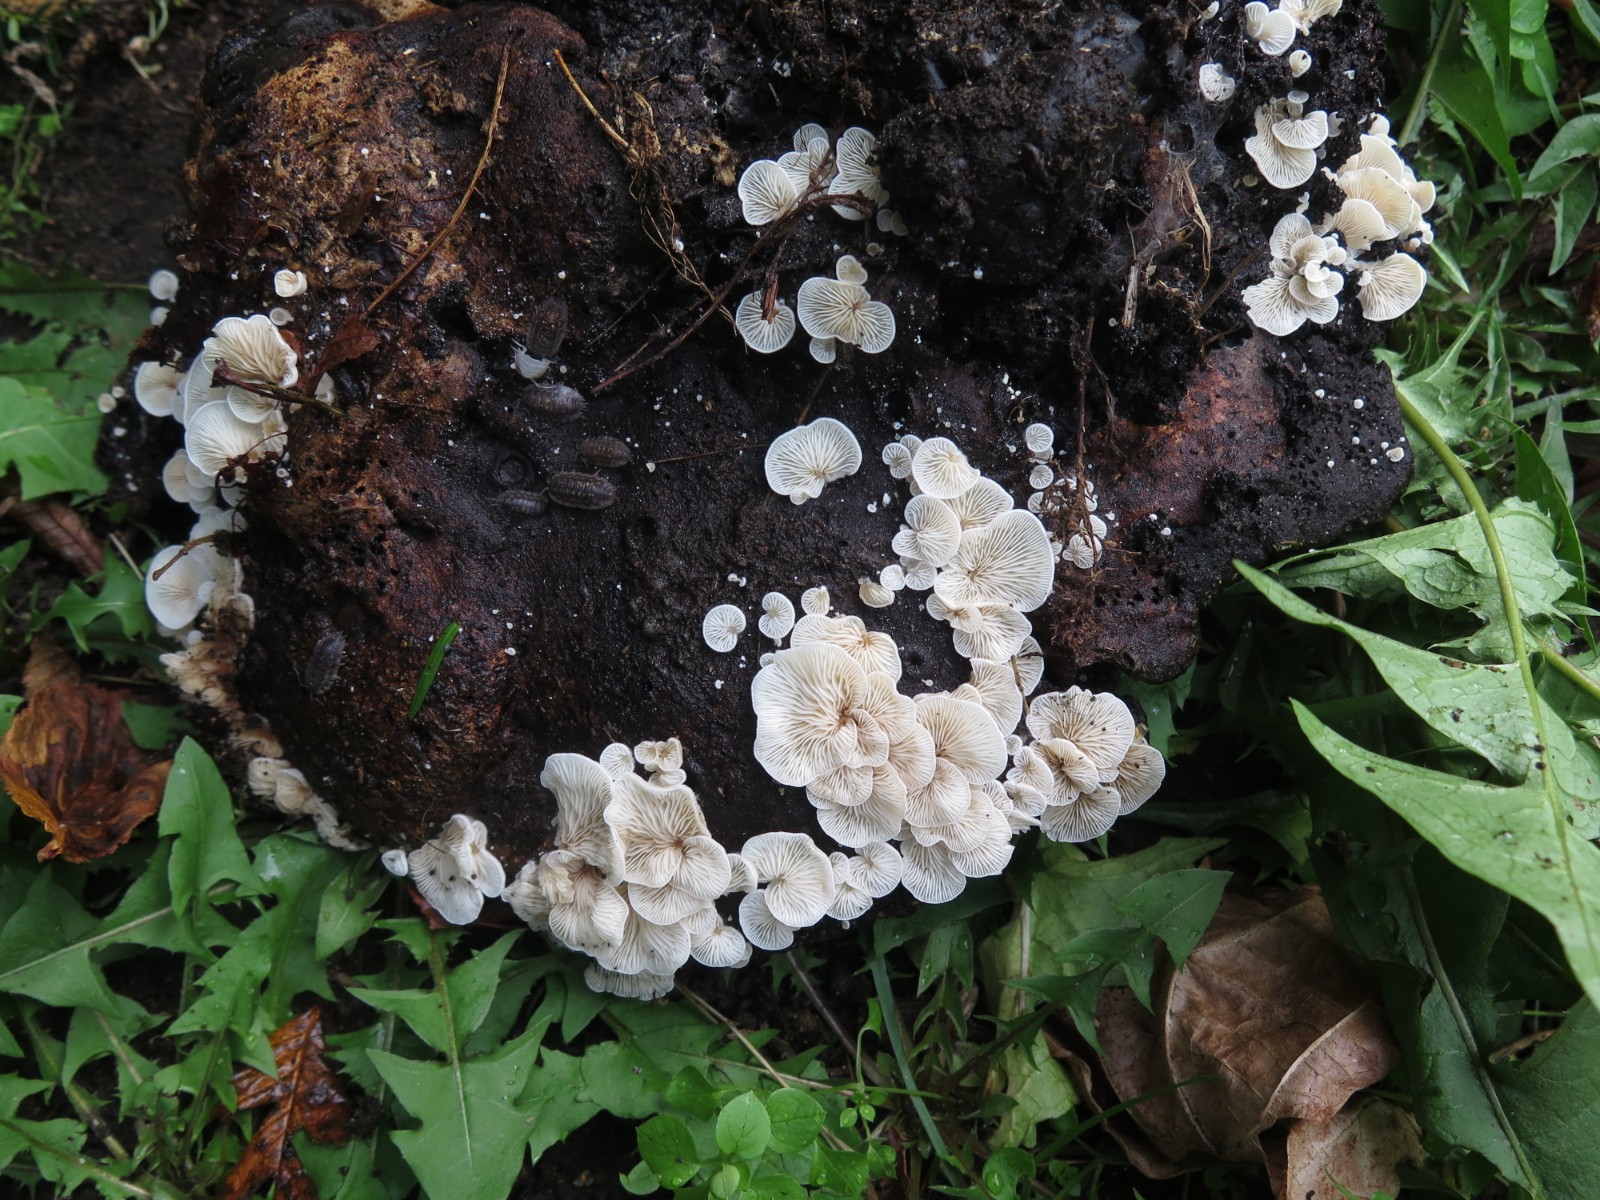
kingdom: Fungi
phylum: Basidiomycota
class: Agaricomycetes
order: Agaricales
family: Entolomataceae
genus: Clitopilus
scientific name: Clitopilus hobsonii
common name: Miller's oysterling
